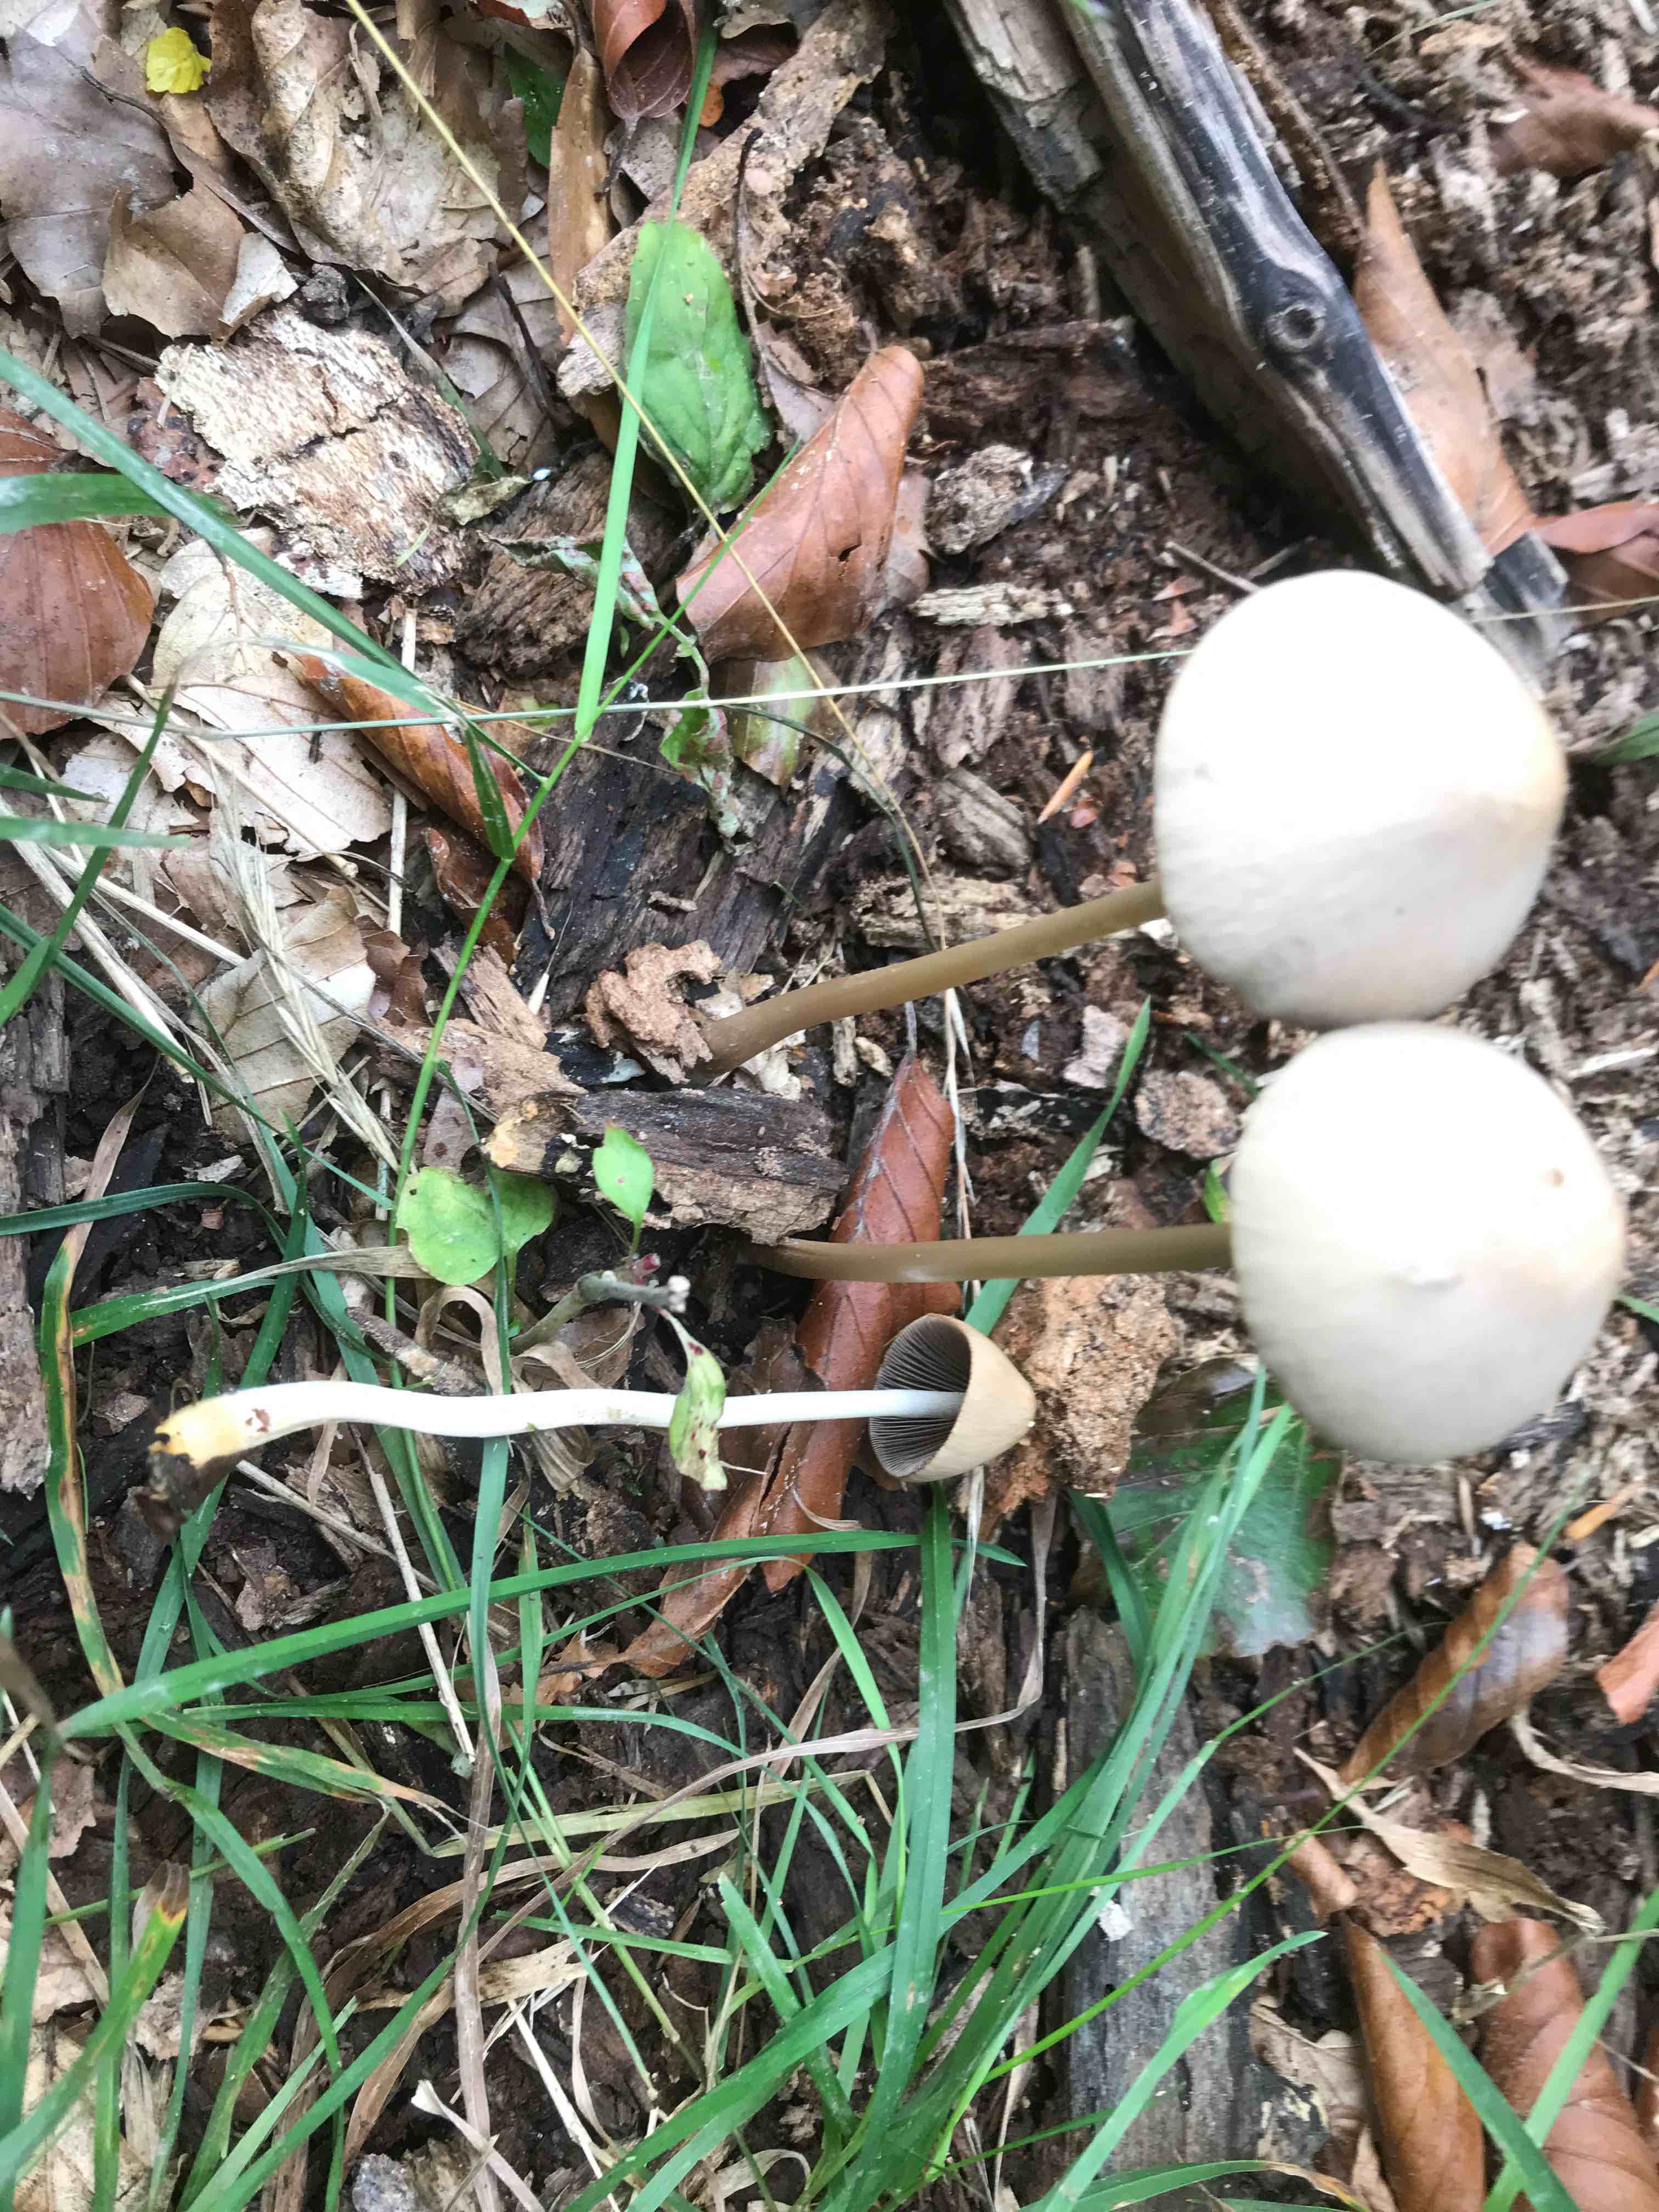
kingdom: Fungi
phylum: Basidiomycota
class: Agaricomycetes
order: Agaricales
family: Psathyrellaceae
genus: Parasola
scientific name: Parasola conopilea
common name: kegle-hjulhat
